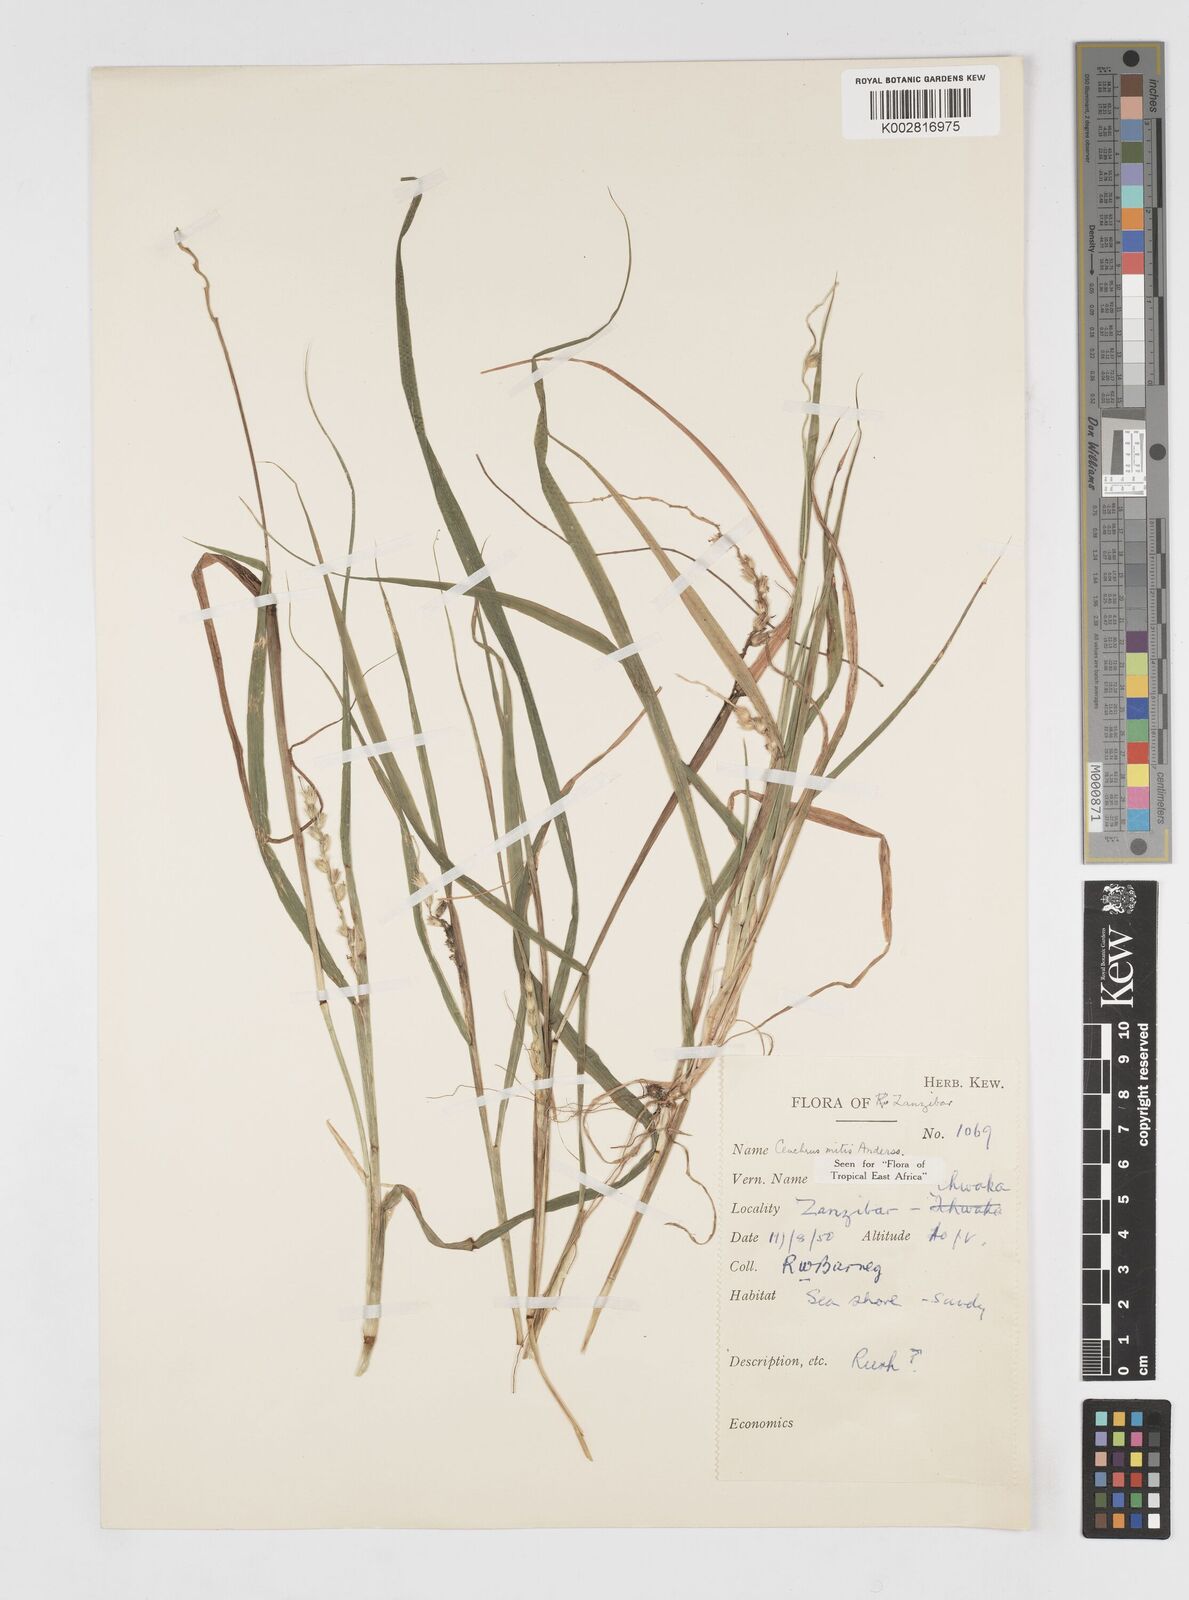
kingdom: Plantae
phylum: Tracheophyta
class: Liliopsida
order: Poales
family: Poaceae
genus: Cenchrus
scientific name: Cenchrus mitis
